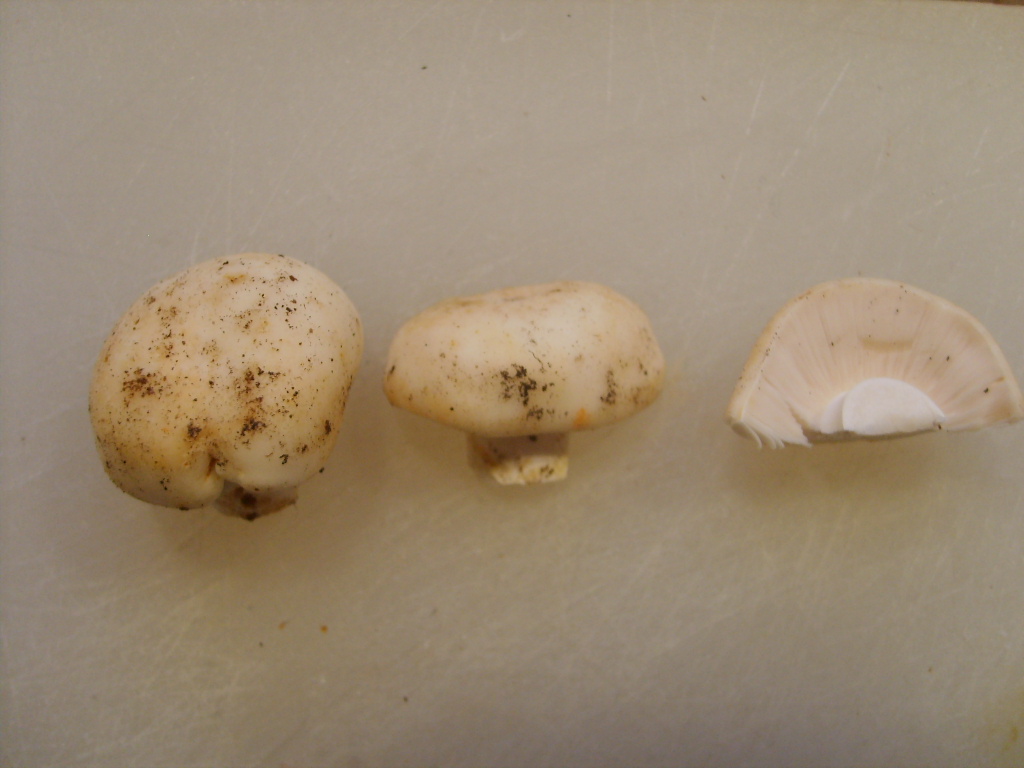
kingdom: Fungi
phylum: Basidiomycota
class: Agaricomycetes
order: Russulales
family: Russulaceae
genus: Russula
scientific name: Russula virescens
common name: spanskgrøn skørhat
